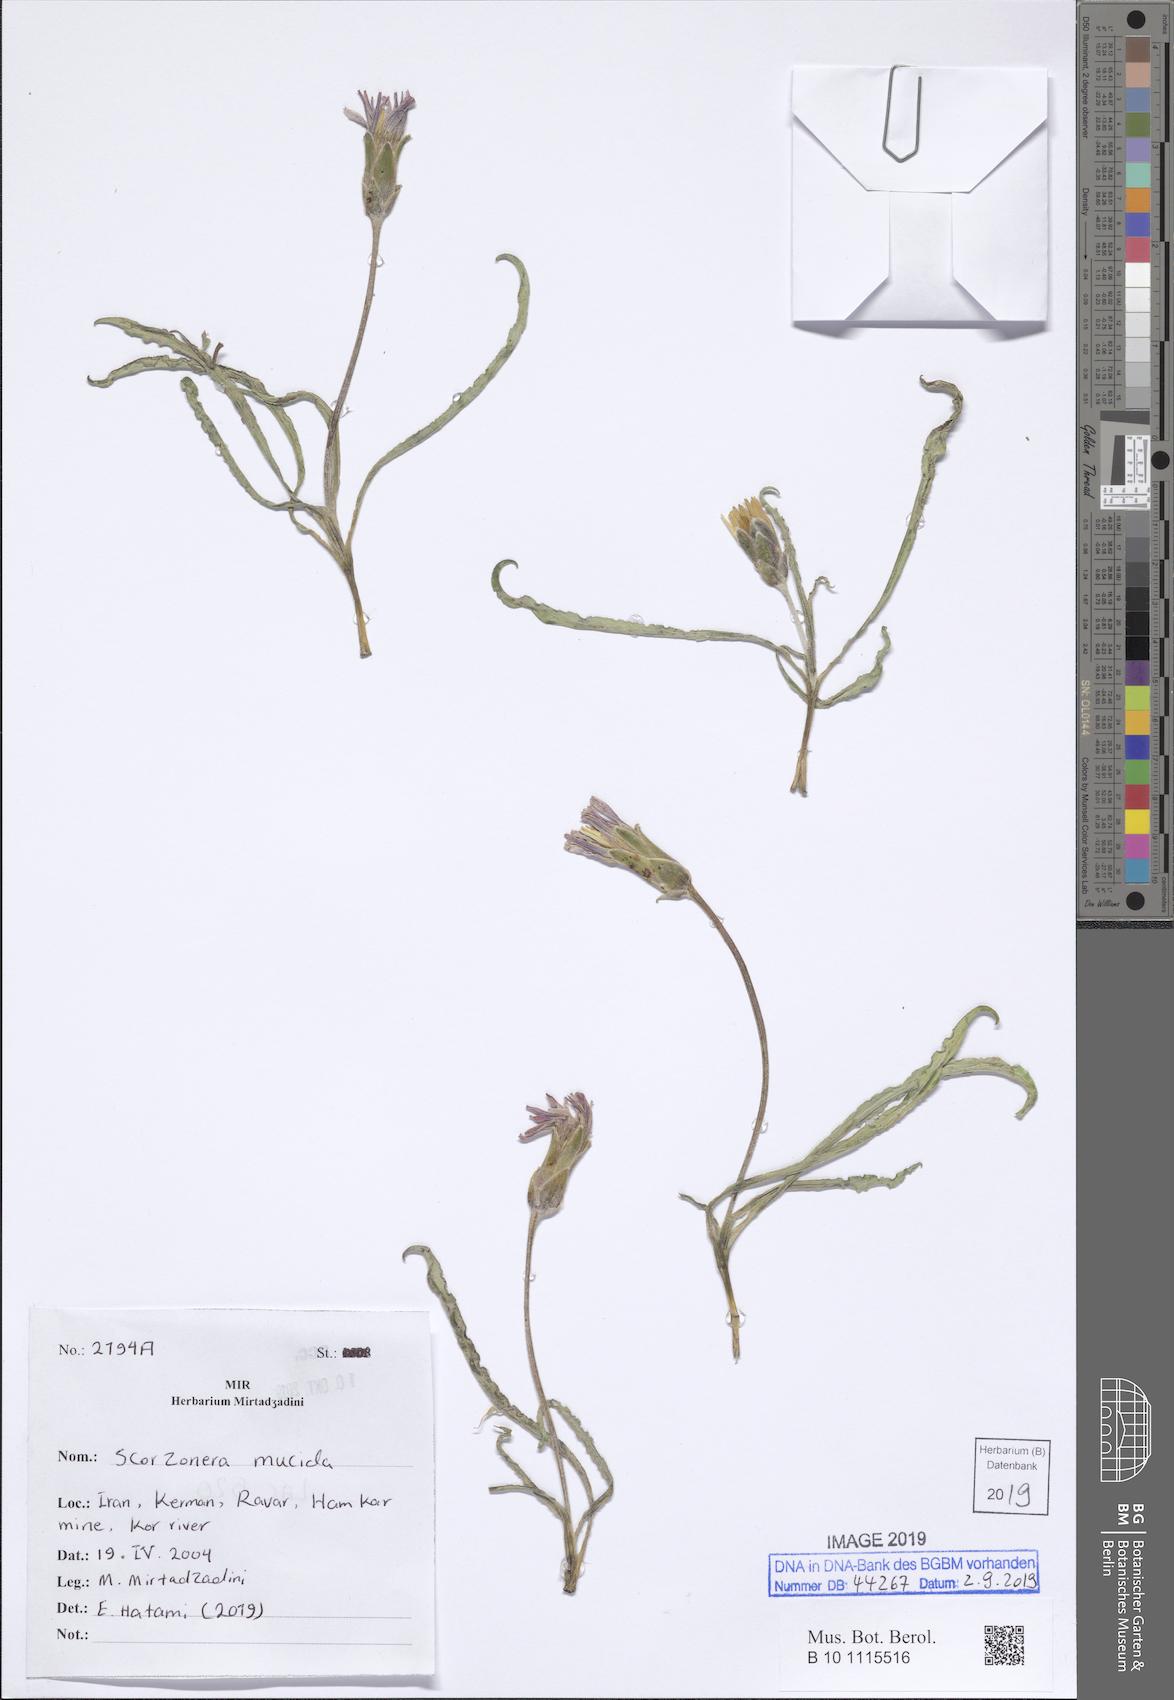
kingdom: Plantae
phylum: Tracheophyta
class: Magnoliopsida
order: Asterales
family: Asteraceae
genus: Candollea
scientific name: Candollea mucida
